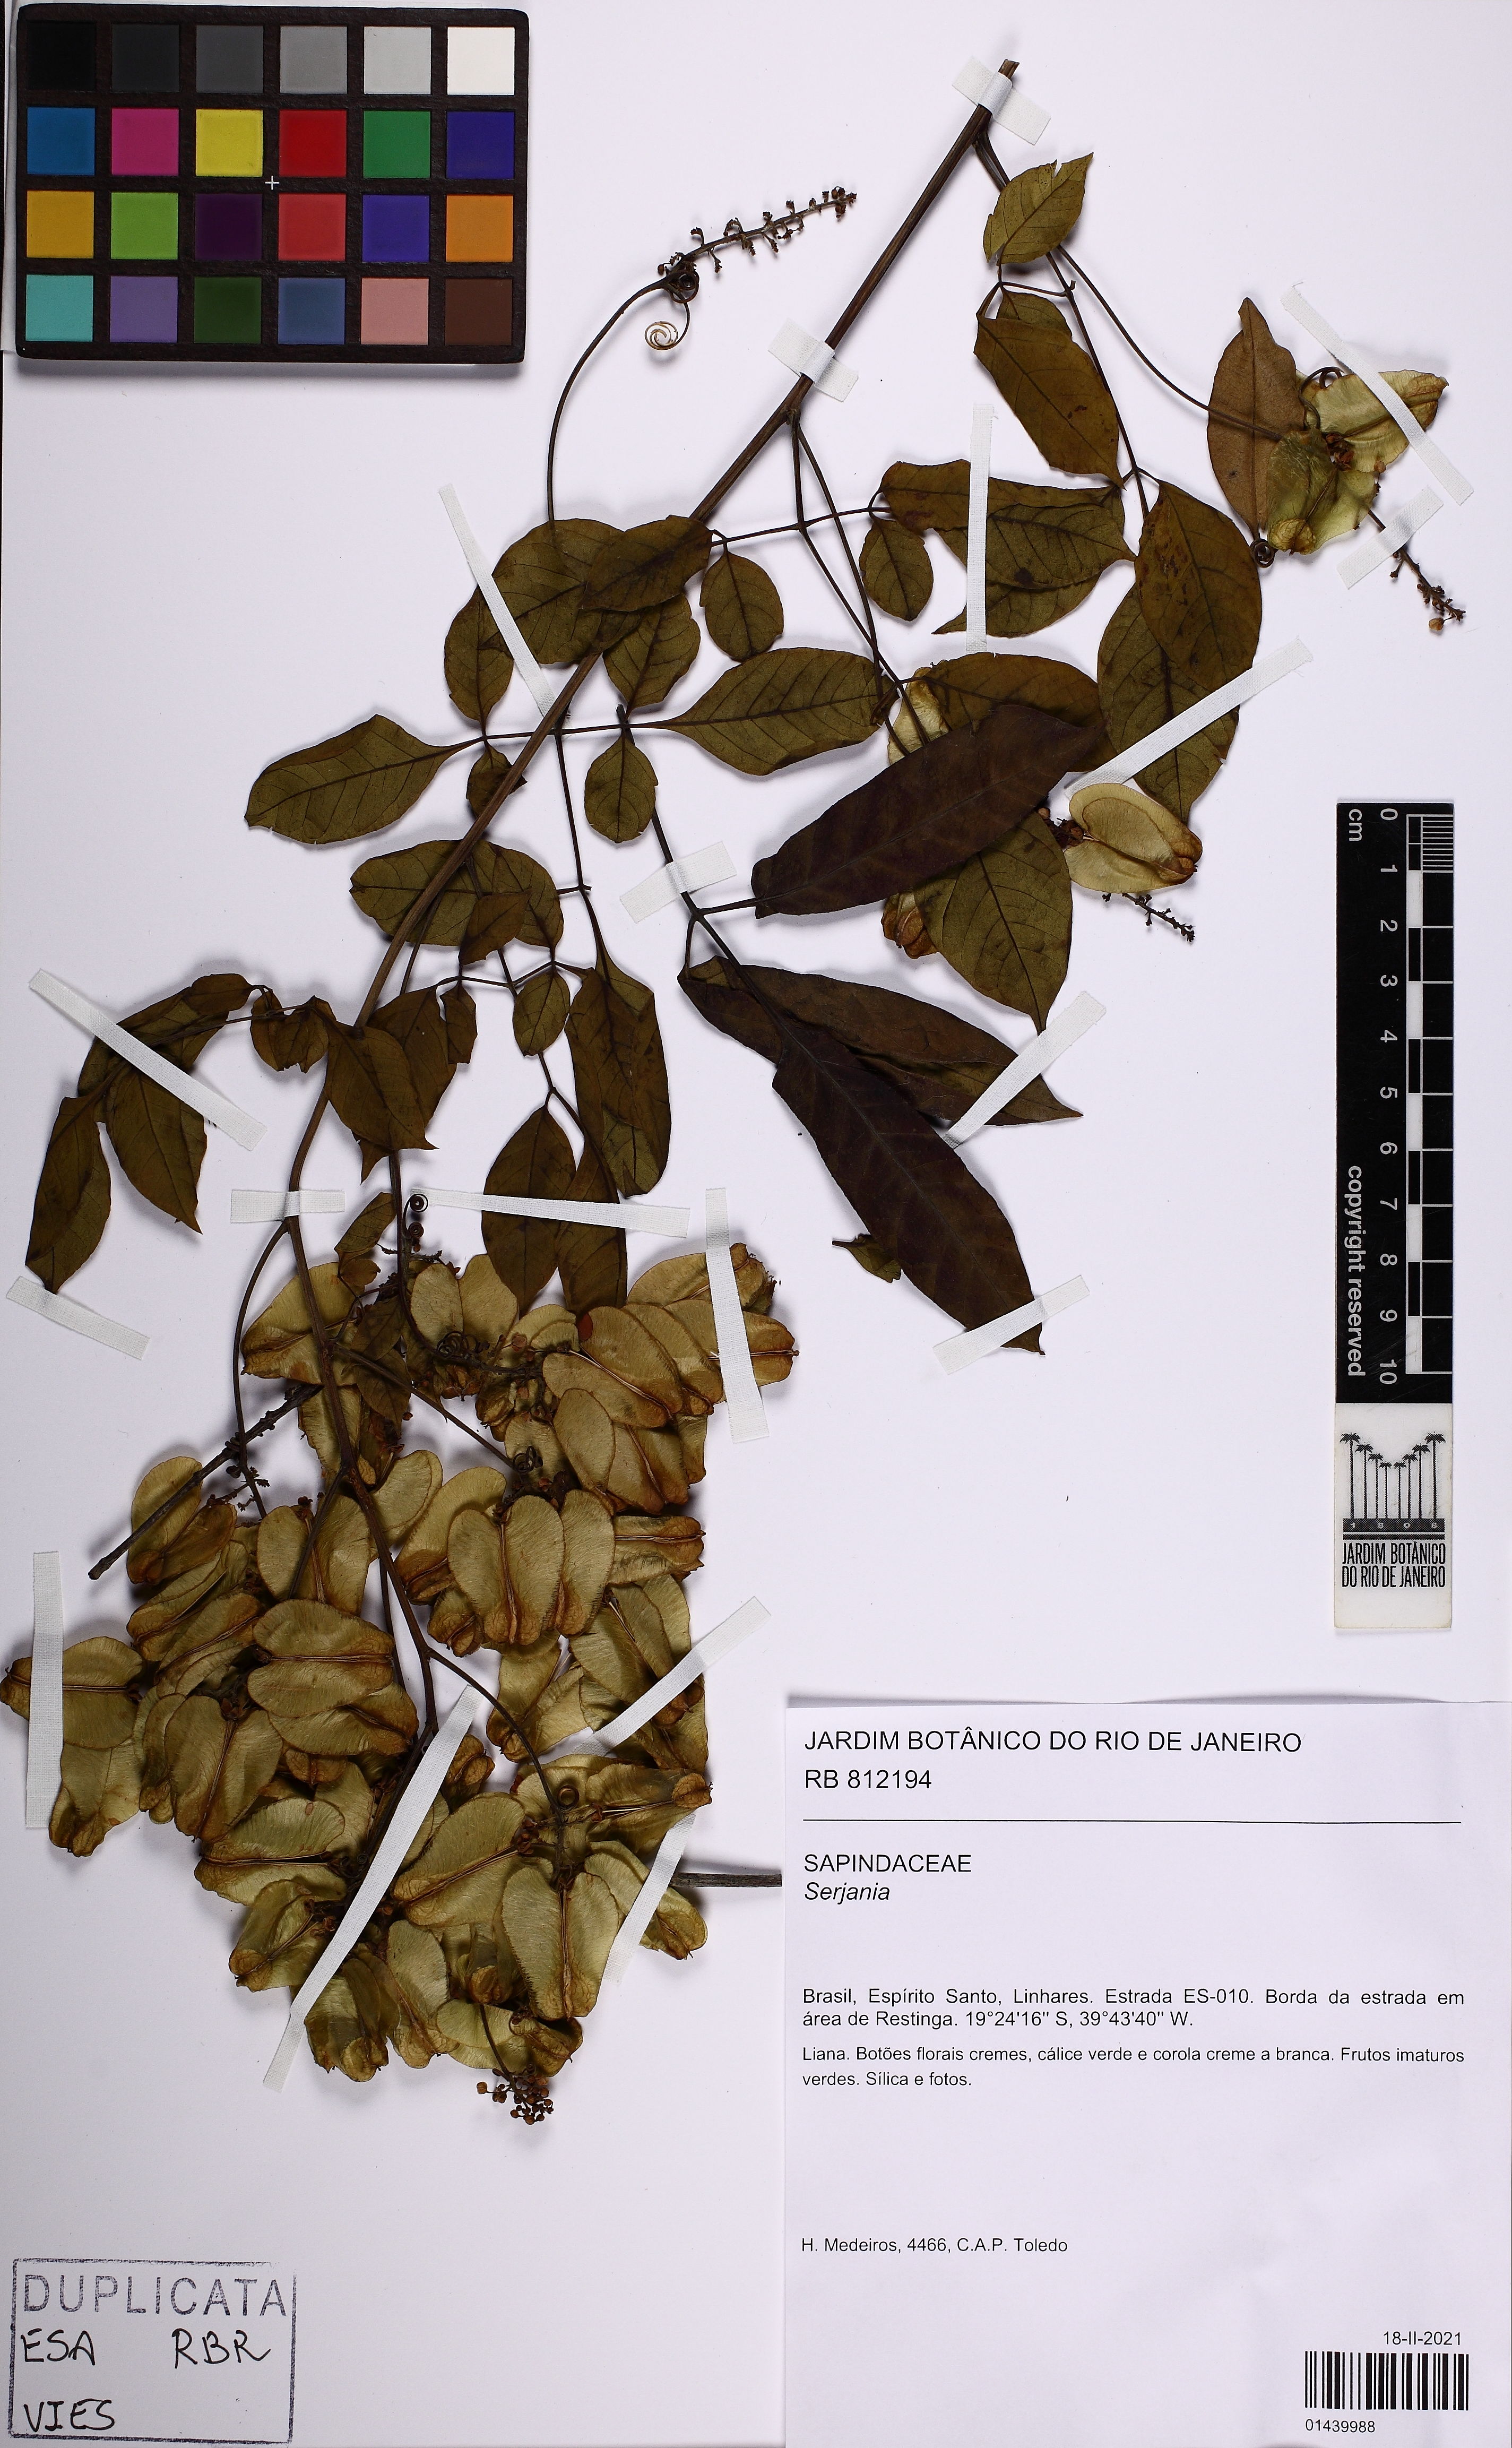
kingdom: Plantae
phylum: Tracheophyta
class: Magnoliopsida
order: Sapindales
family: Sapindaceae
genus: Serjania
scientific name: Serjania
